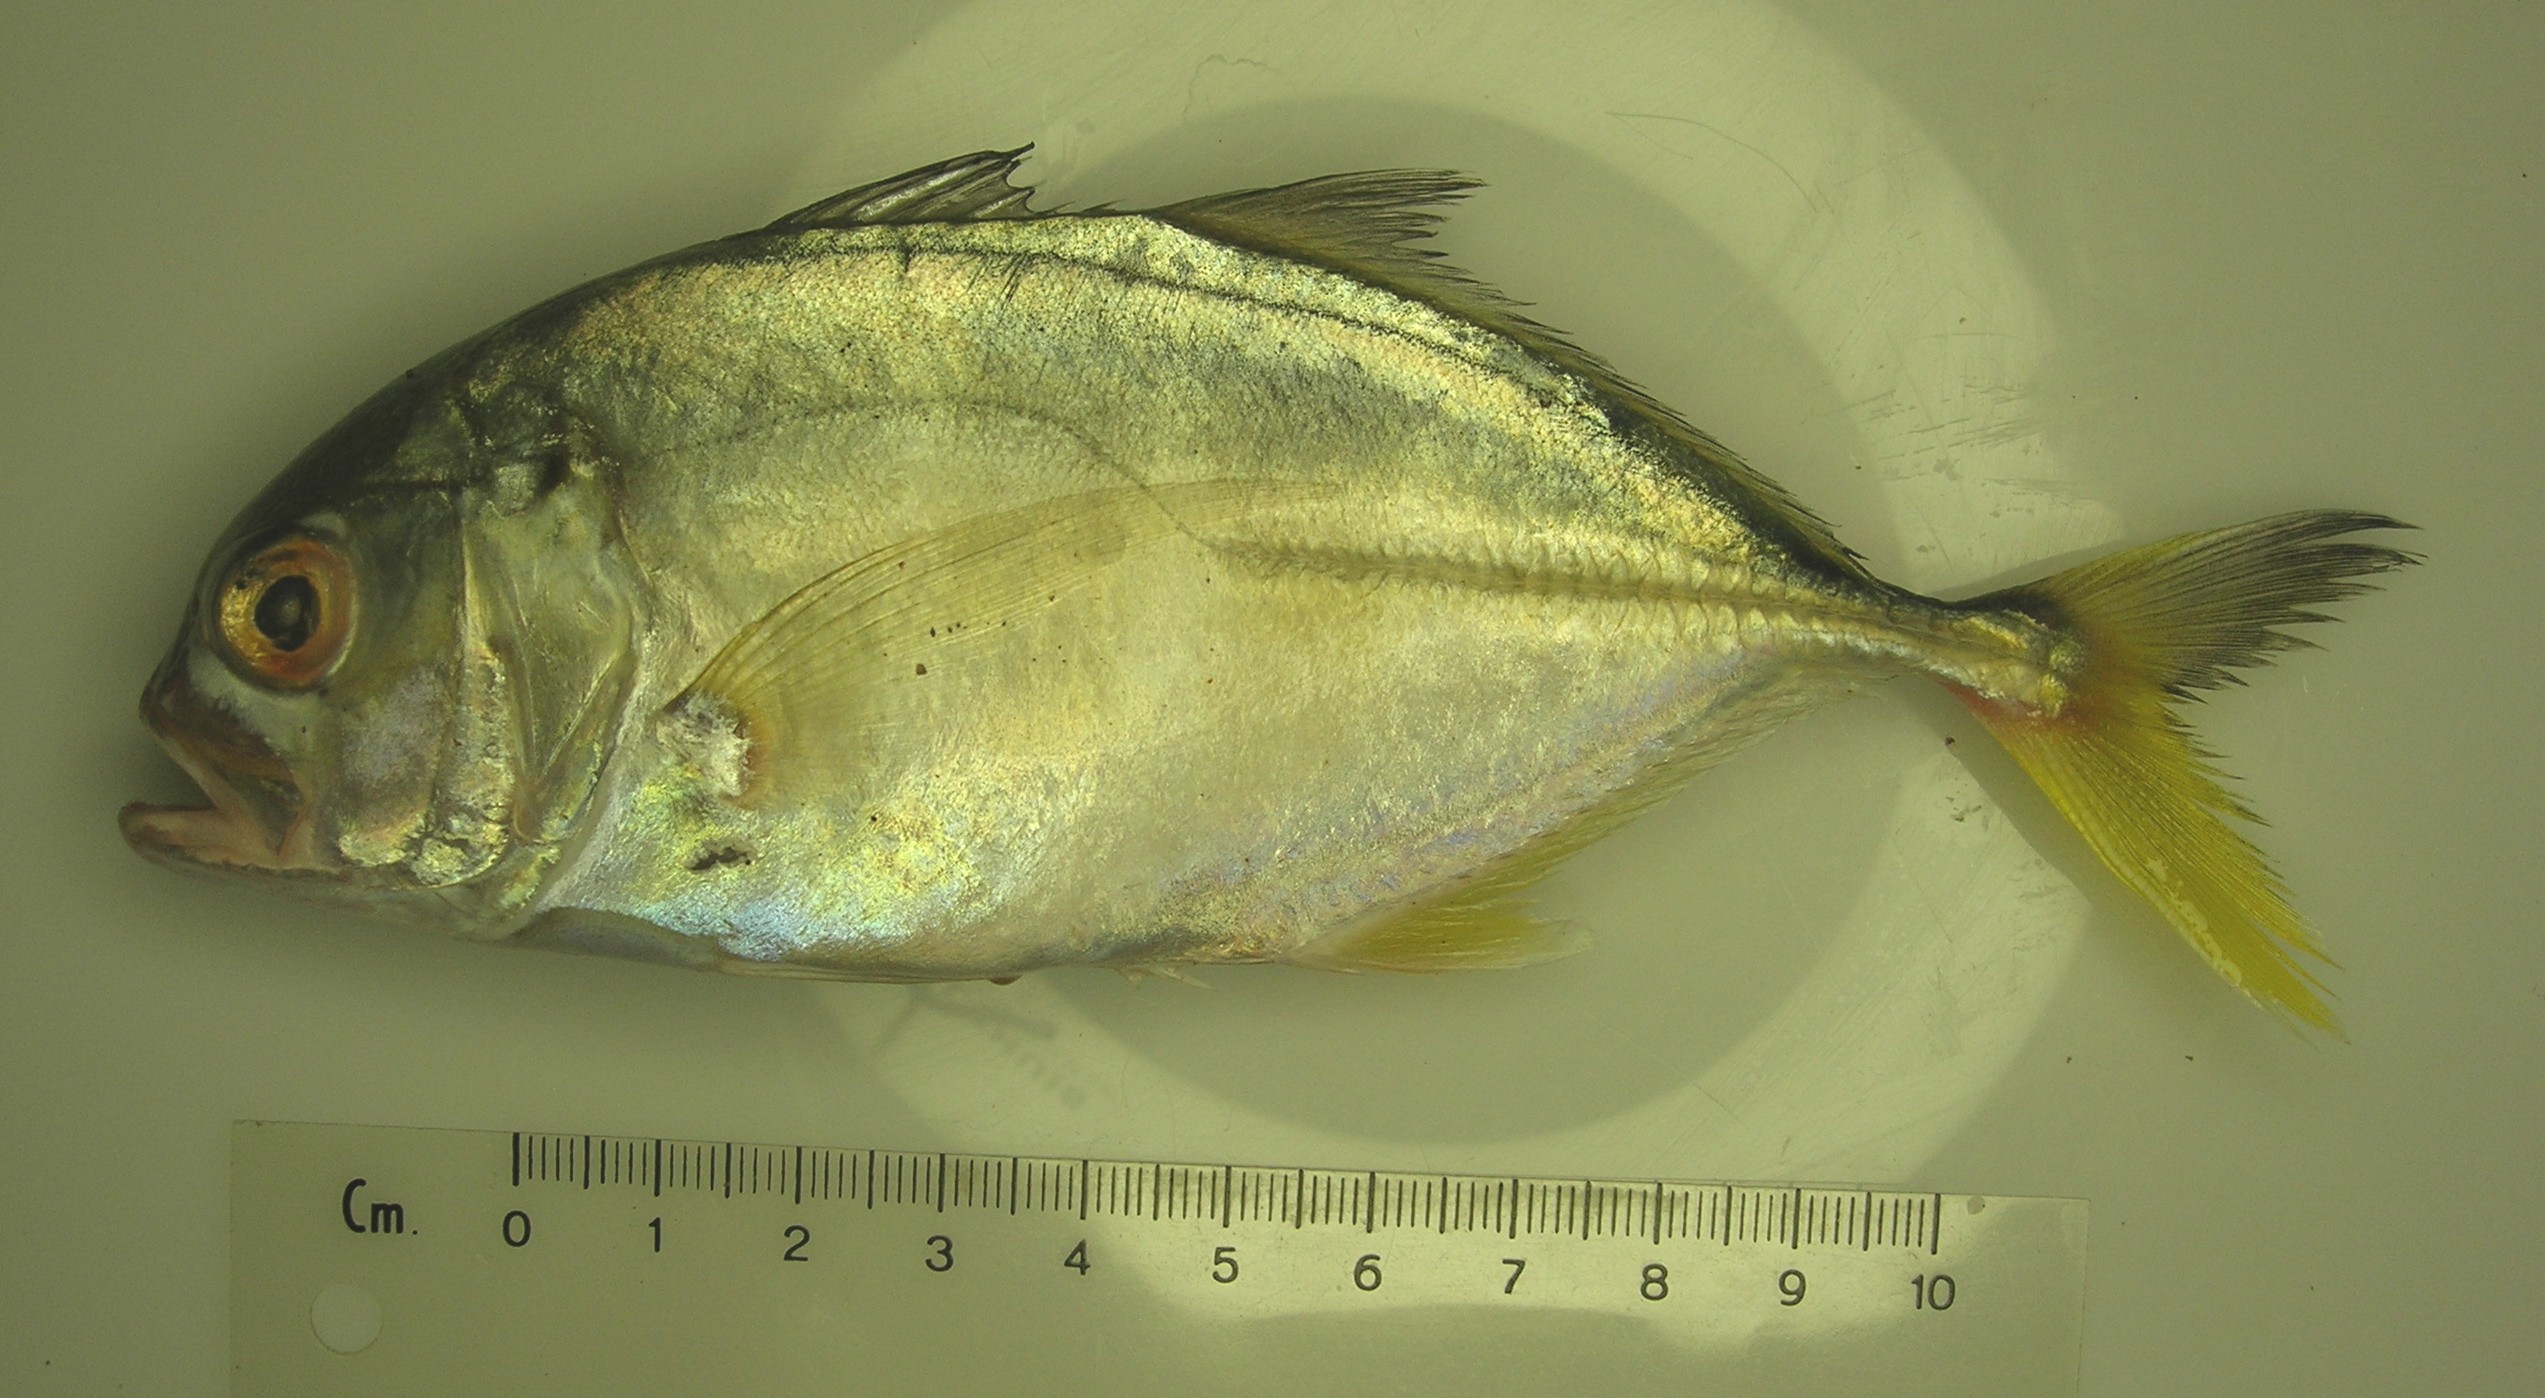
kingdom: Animalia
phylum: Chordata
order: Perciformes
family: Carangidae
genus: Caranx
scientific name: Caranx tille
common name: Tille trevally
